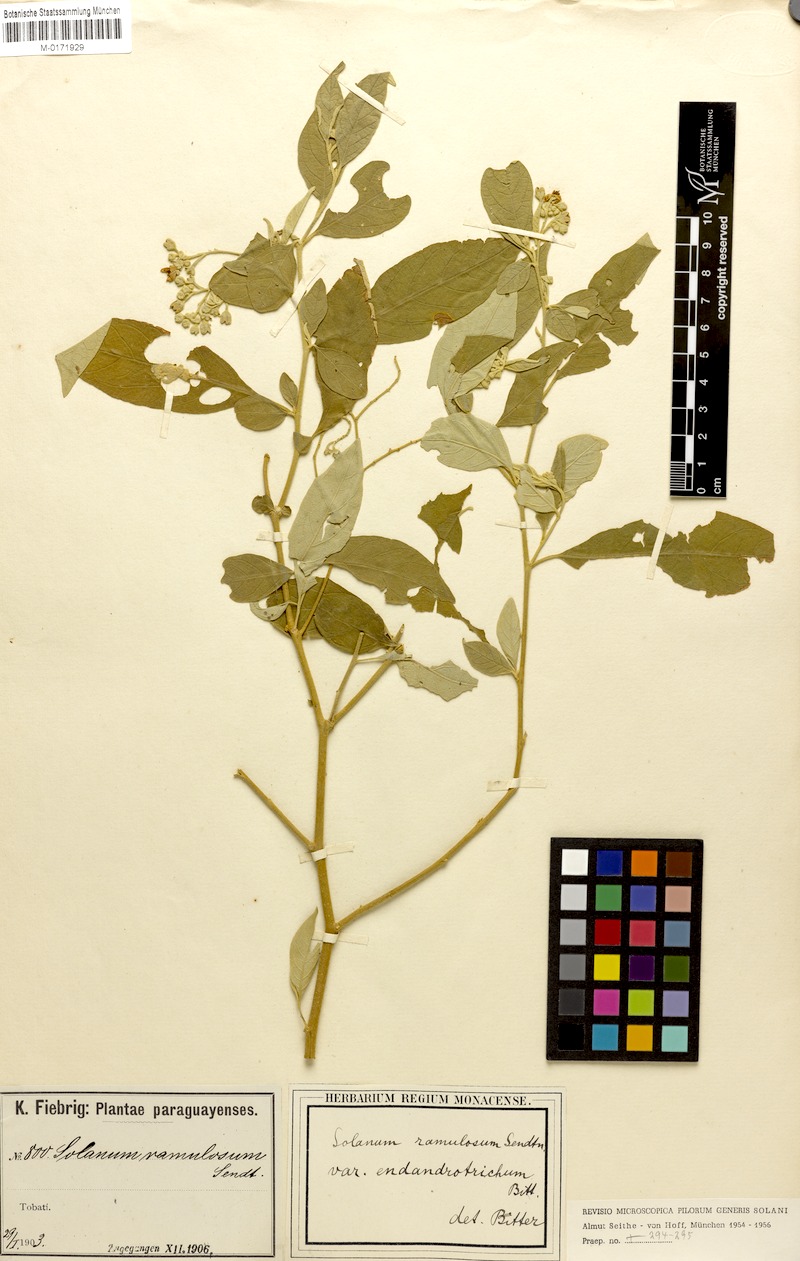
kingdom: Plantae
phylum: Tracheophyta
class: Magnoliopsida
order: Solanales
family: Solanaceae
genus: Solanum
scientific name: Solanum ramulosum
